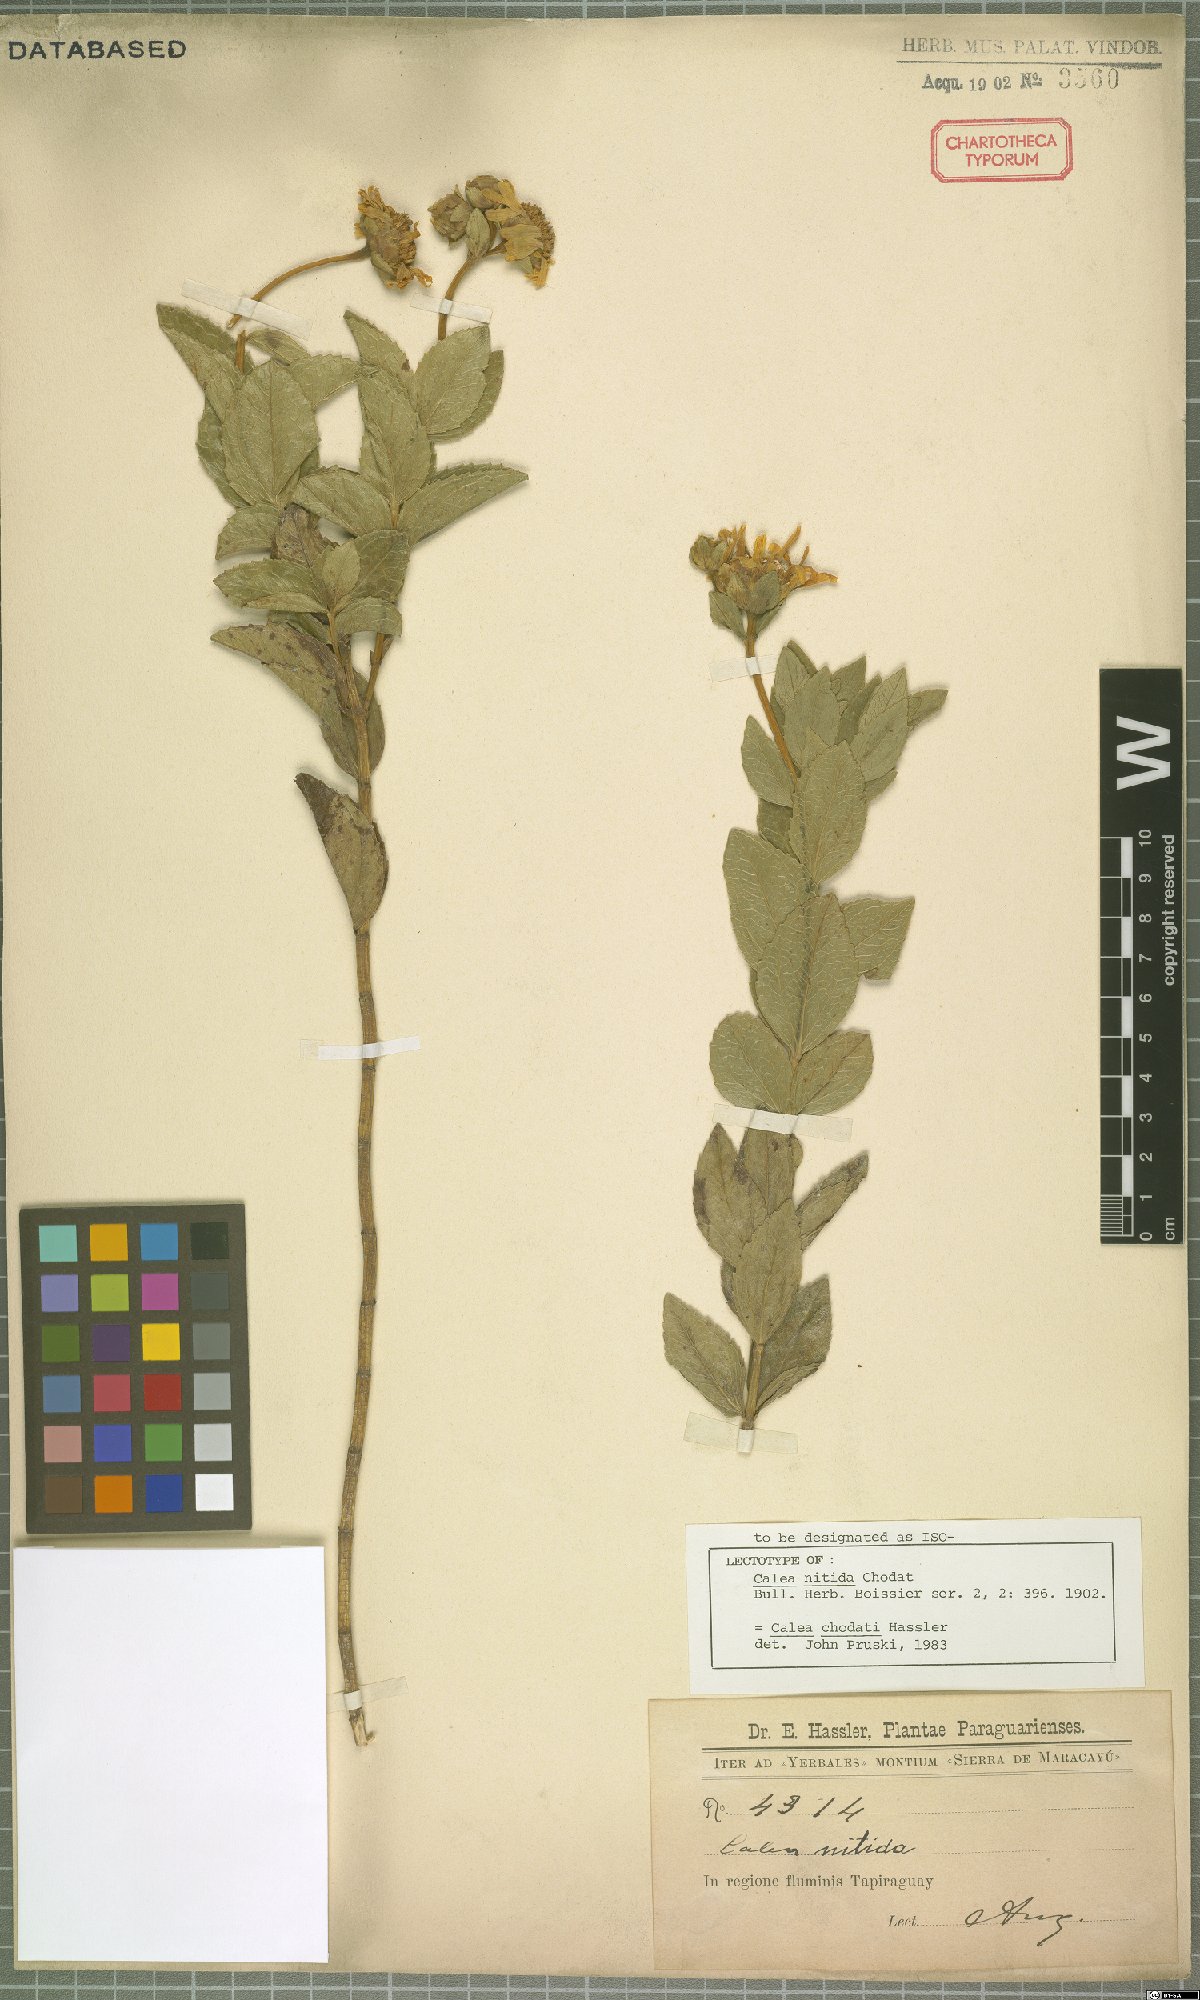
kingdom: Plantae
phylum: Tracheophyta
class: Magnoliopsida
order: Asterales
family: Asteraceae
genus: Calea
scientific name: Calea chodatii
